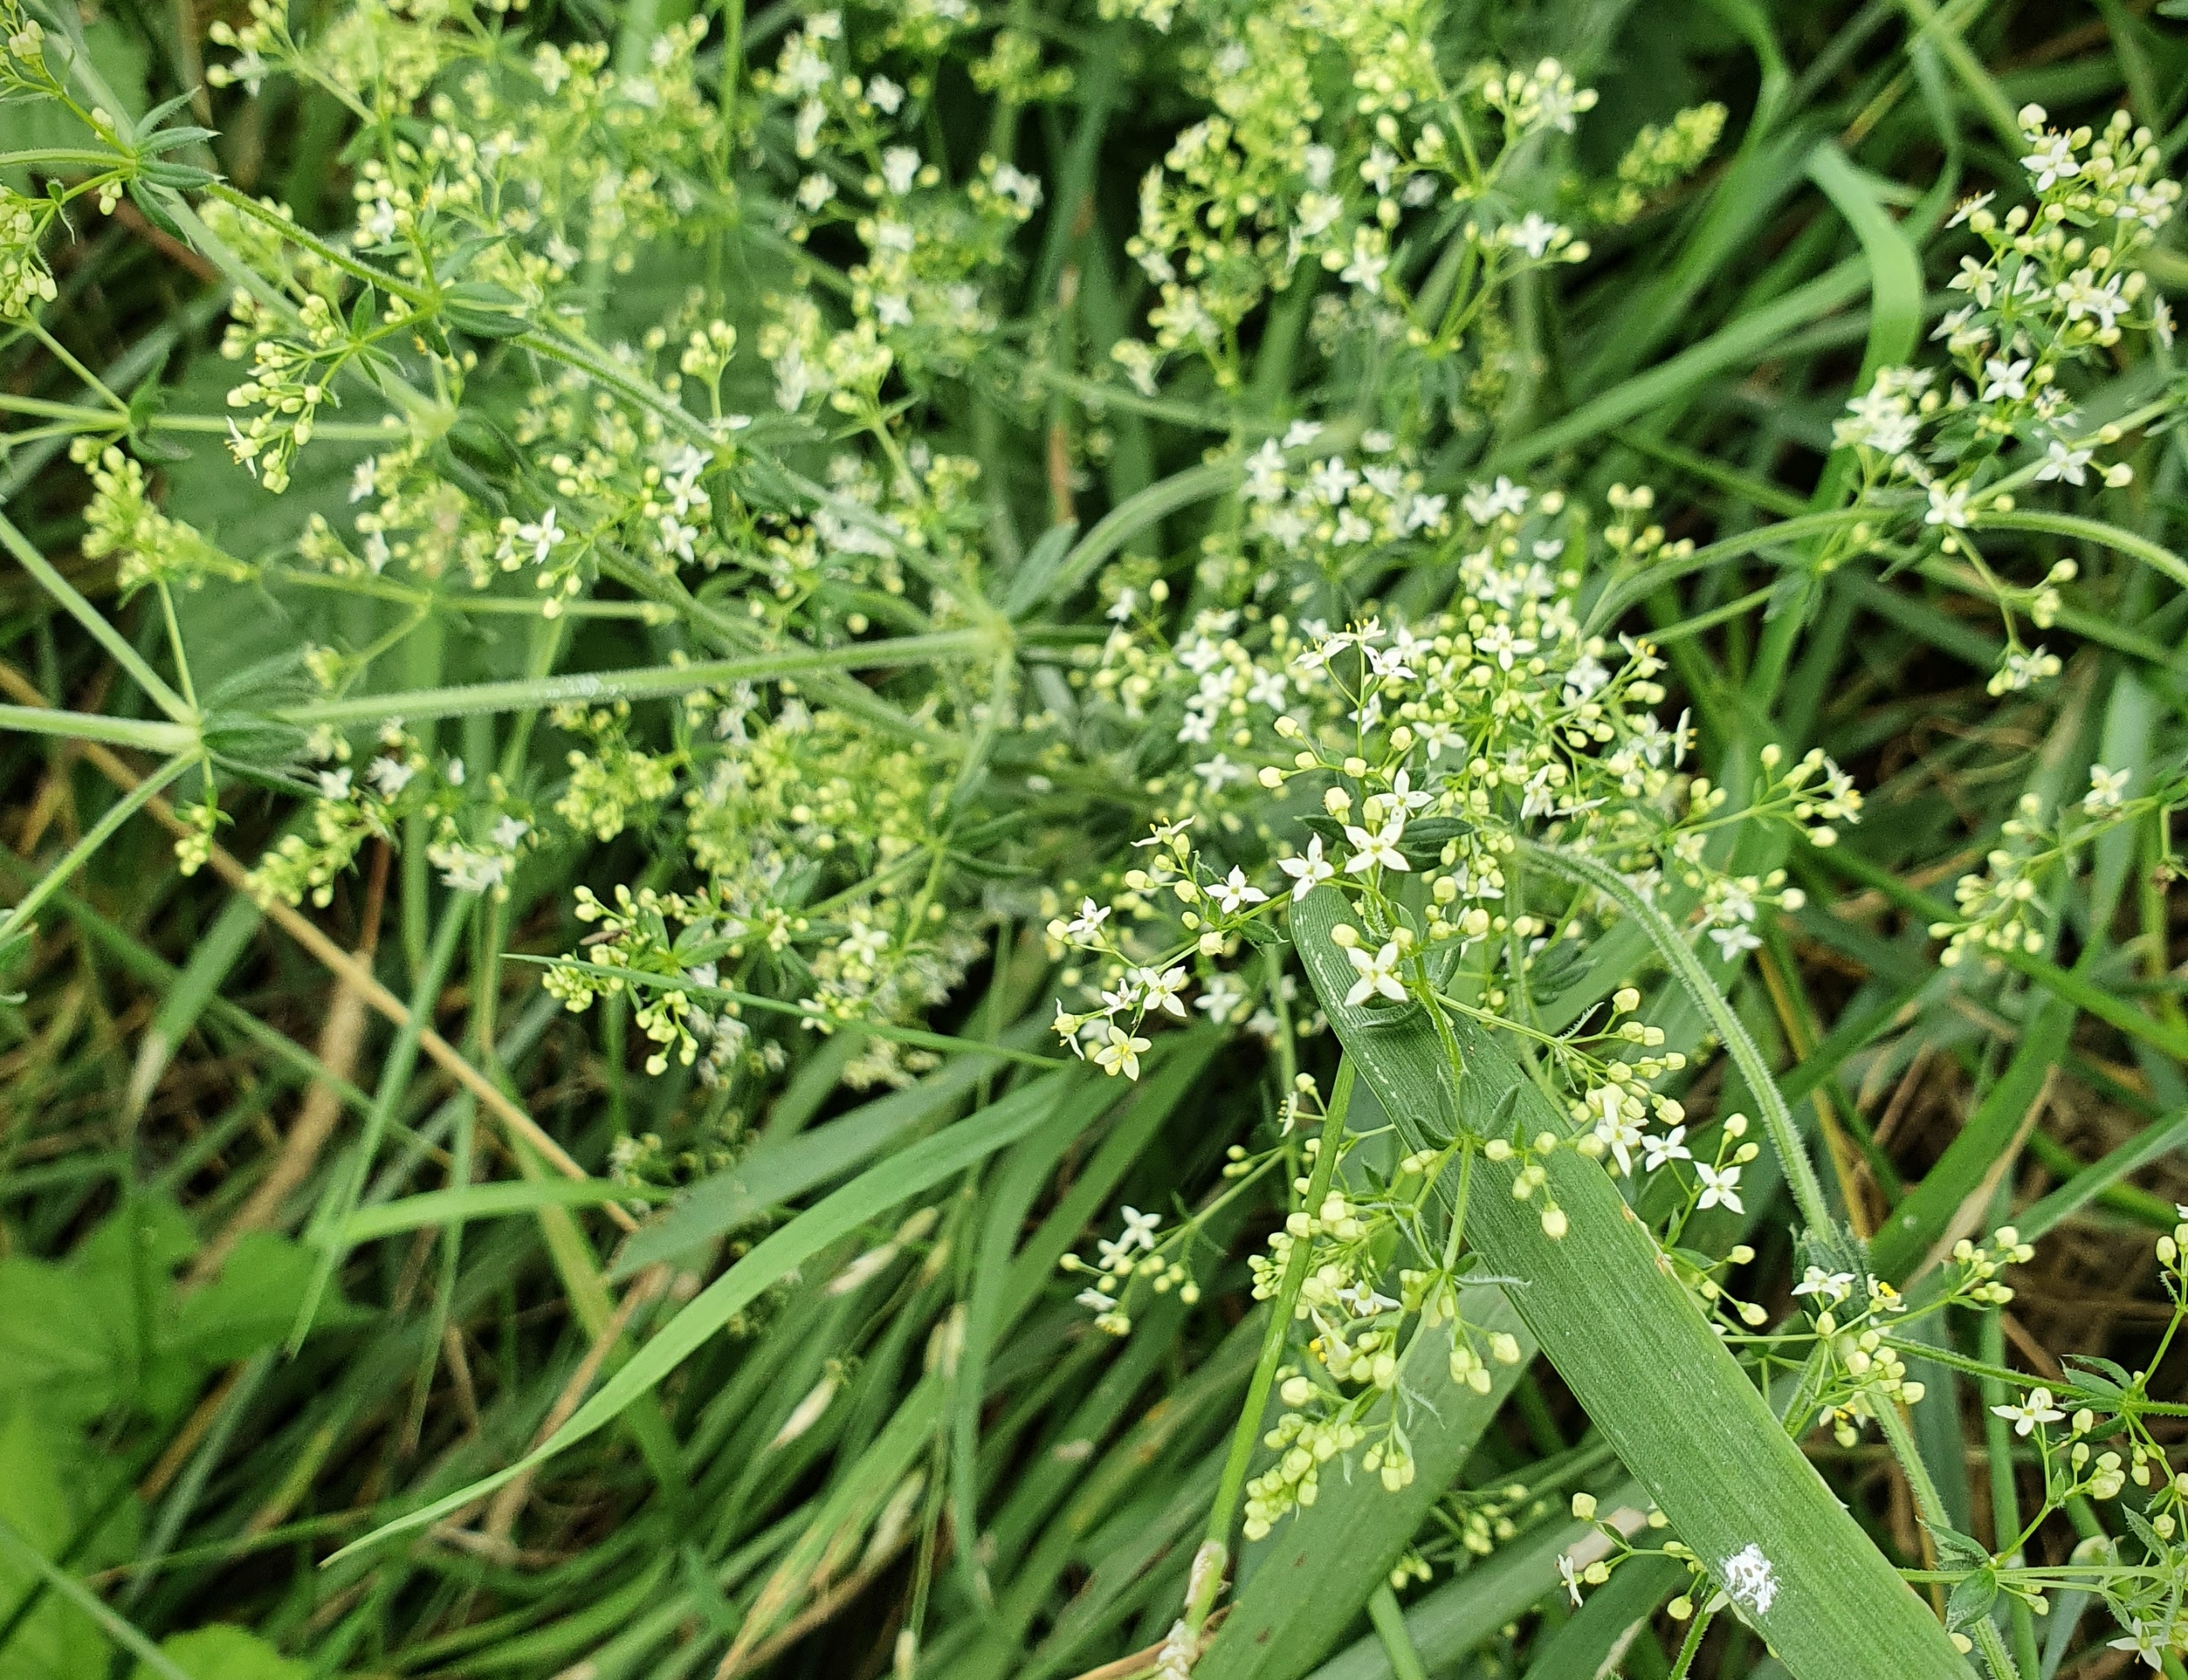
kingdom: Plantae
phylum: Tracheophyta
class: Magnoliopsida
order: Gentianales
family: Rubiaceae
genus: Galium
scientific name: Galium mollugo
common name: Hvid snerre
